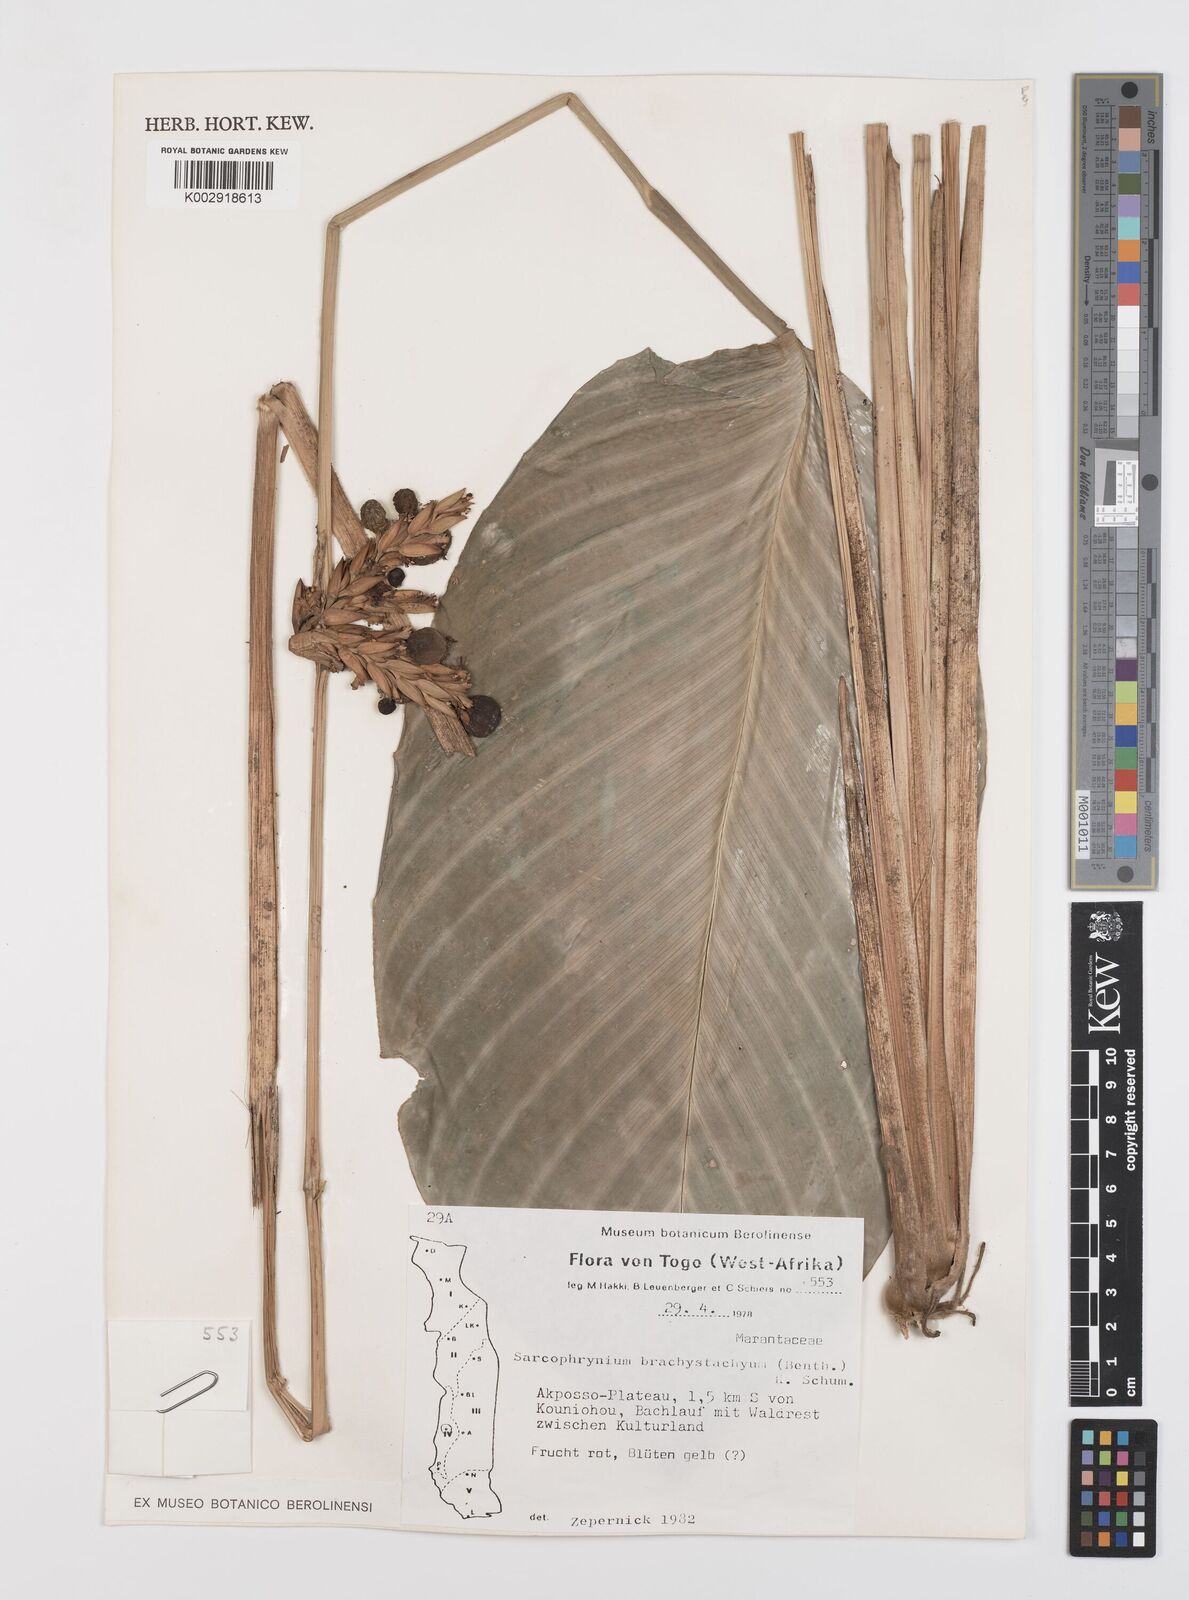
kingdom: Plantae
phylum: Tracheophyta
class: Liliopsida
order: Zingiberales
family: Marantaceae
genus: Sarcophrynium
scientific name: Sarcophrynium brachystachyum
